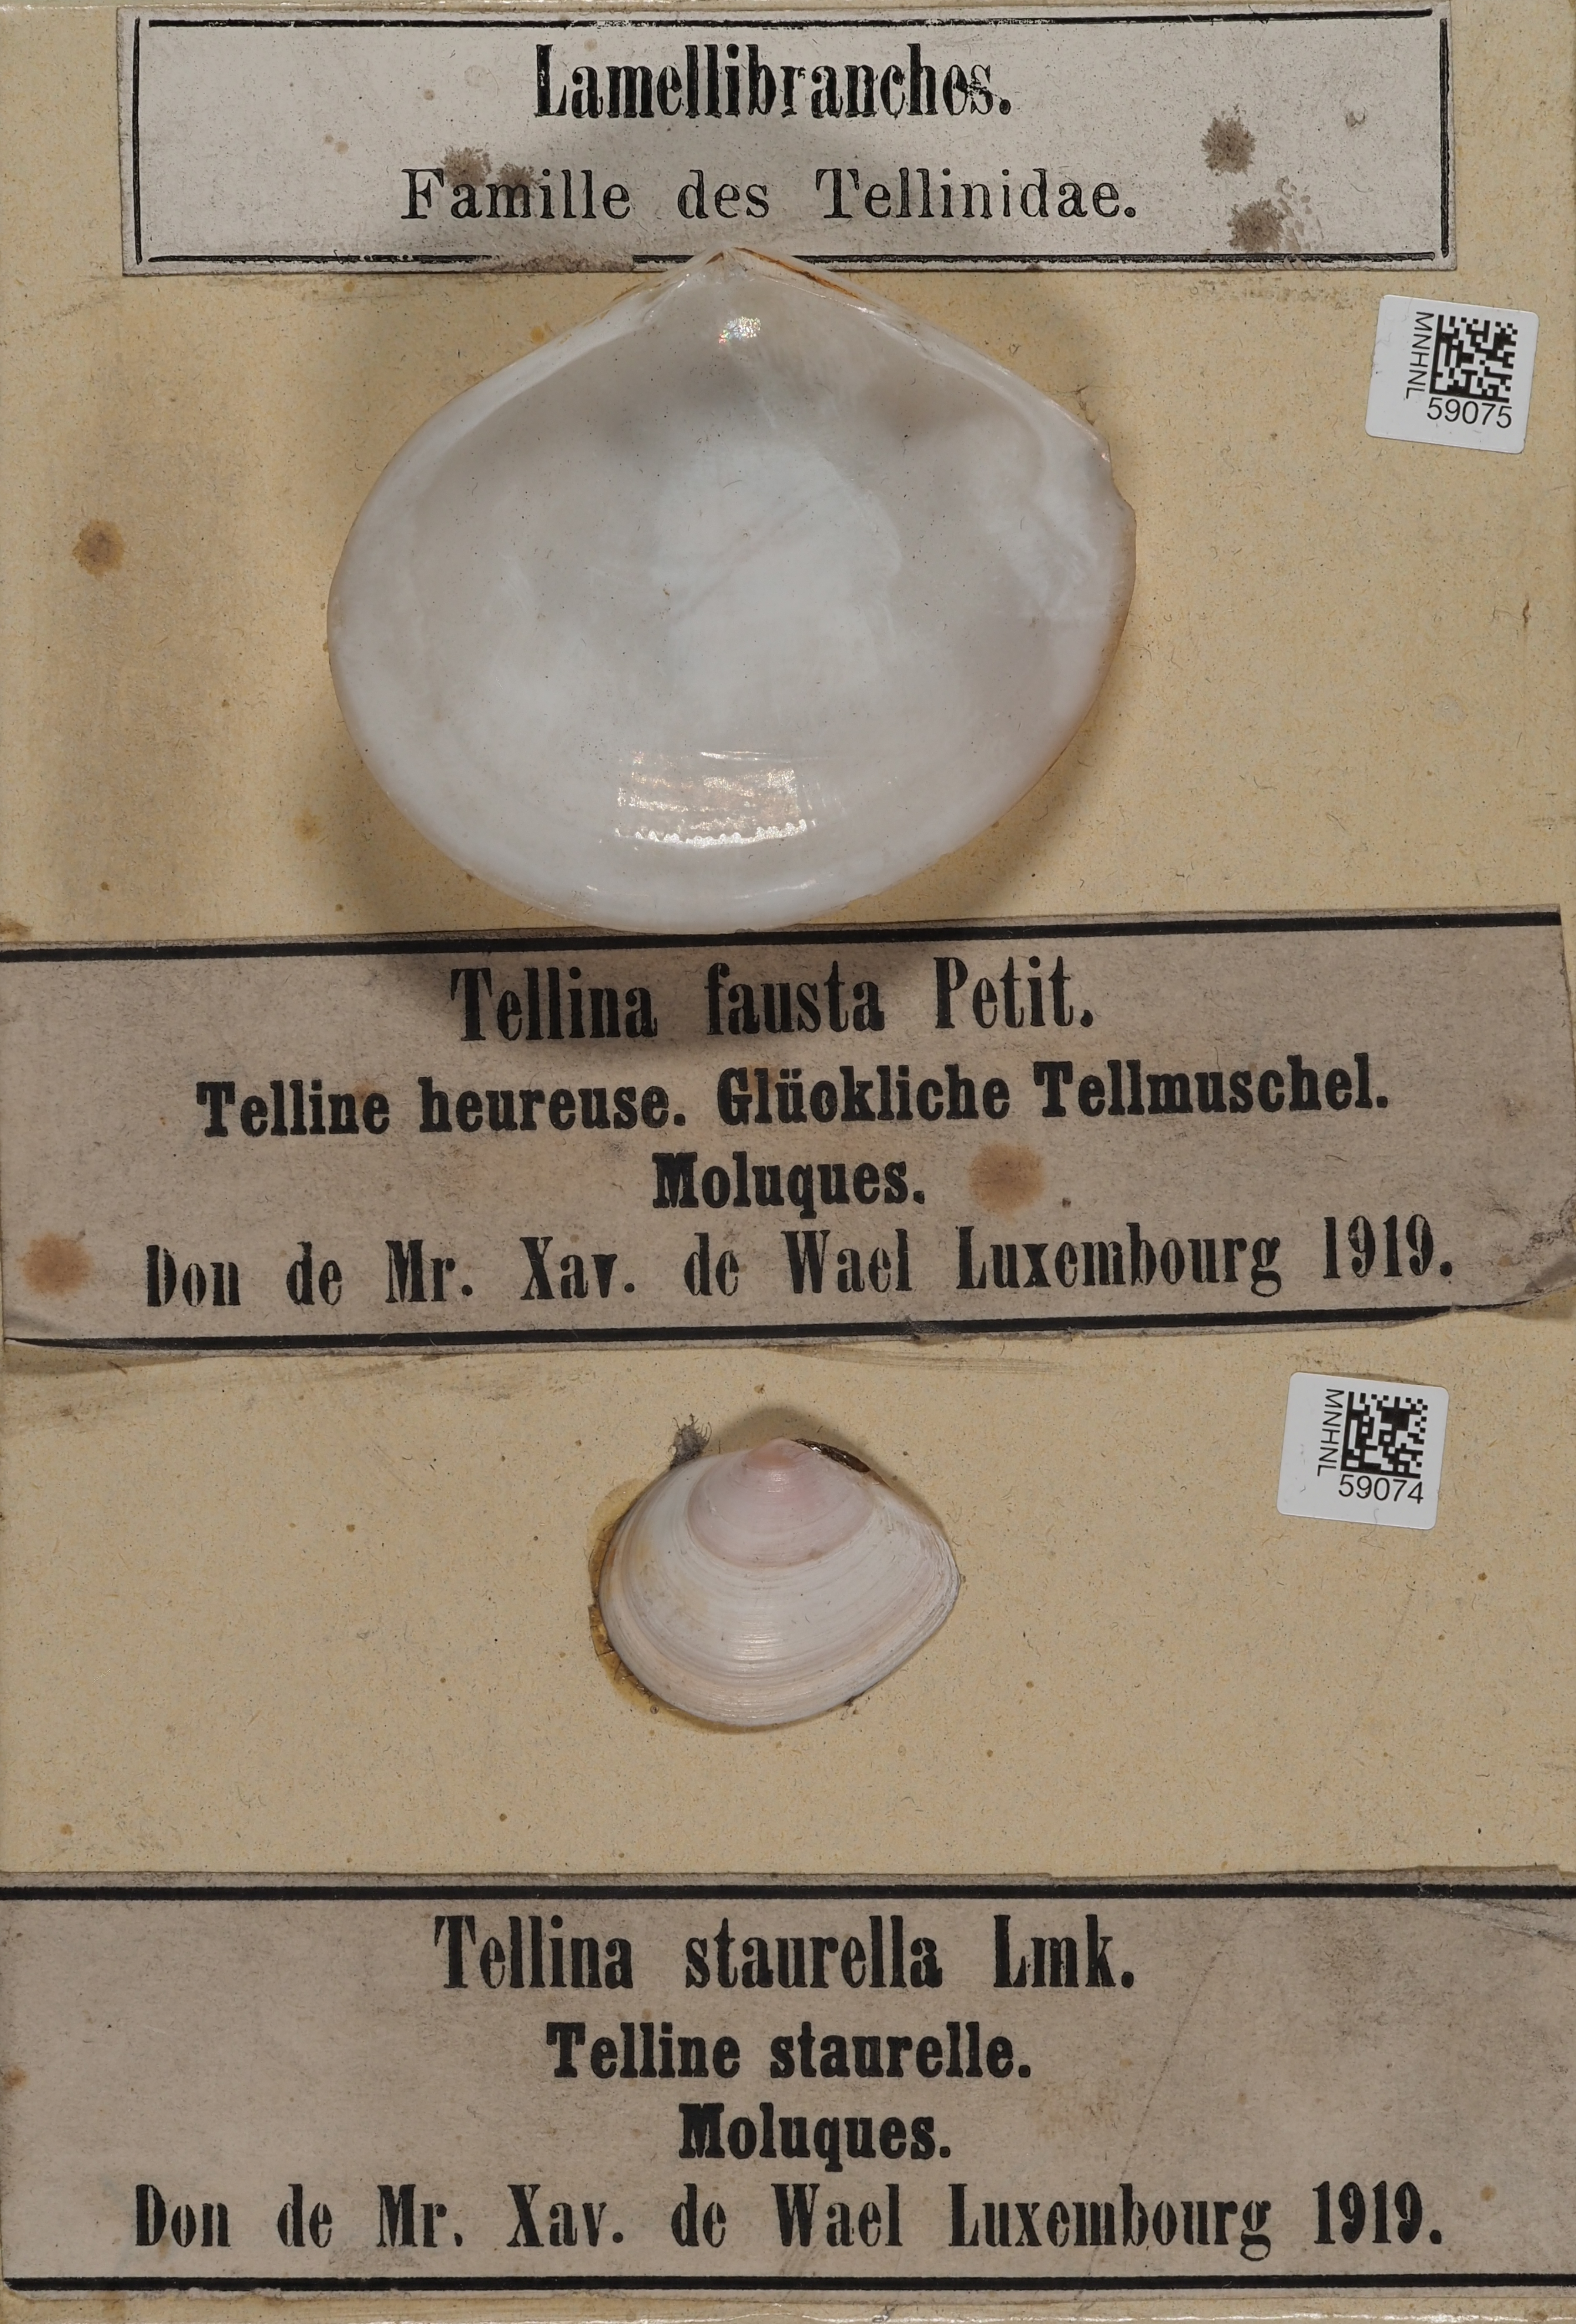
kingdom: Animalia
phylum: Mollusca
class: Bivalvia
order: Cardiida
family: Tellinidae
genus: Tellinella
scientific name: Tellinella cruciata
